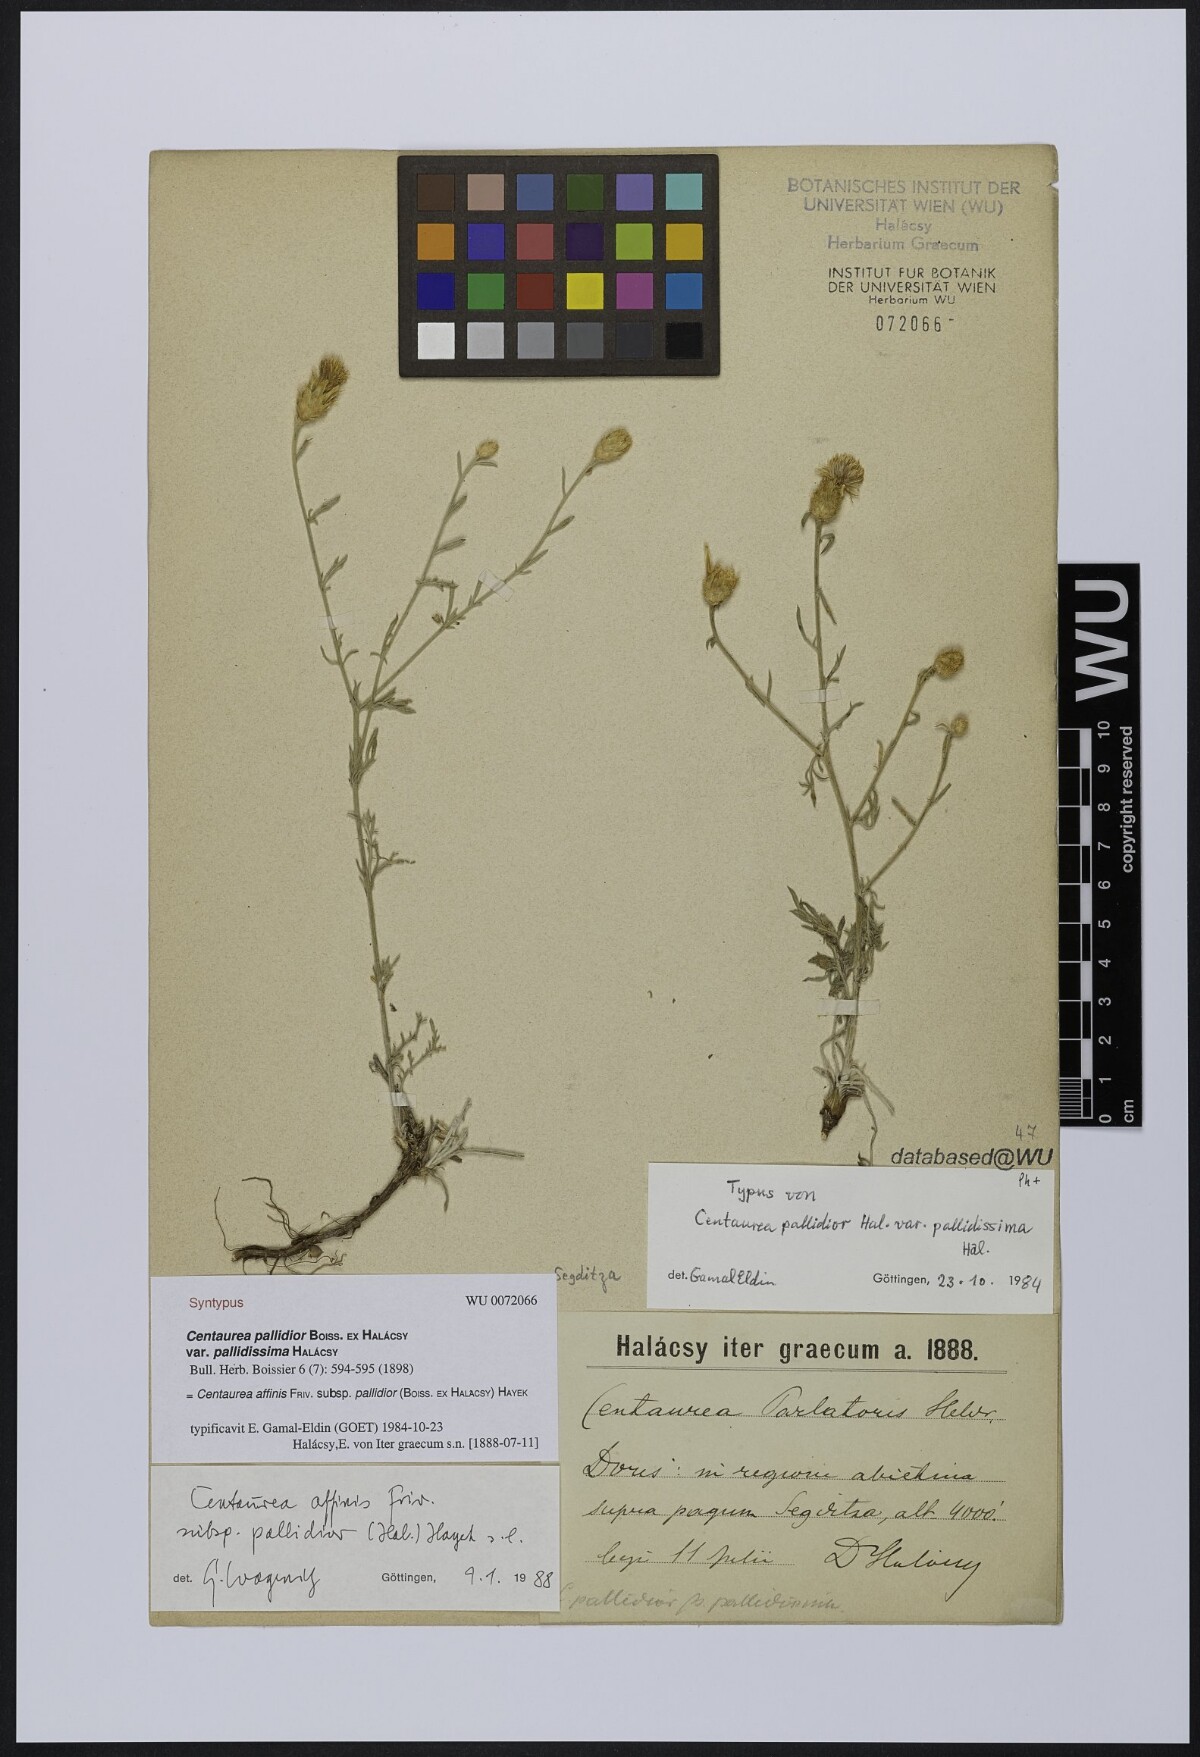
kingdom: Plantae
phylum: Tracheophyta
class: Magnoliopsida
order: Asterales
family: Asteraceae
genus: Centaurea
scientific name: Centaurea affinis
